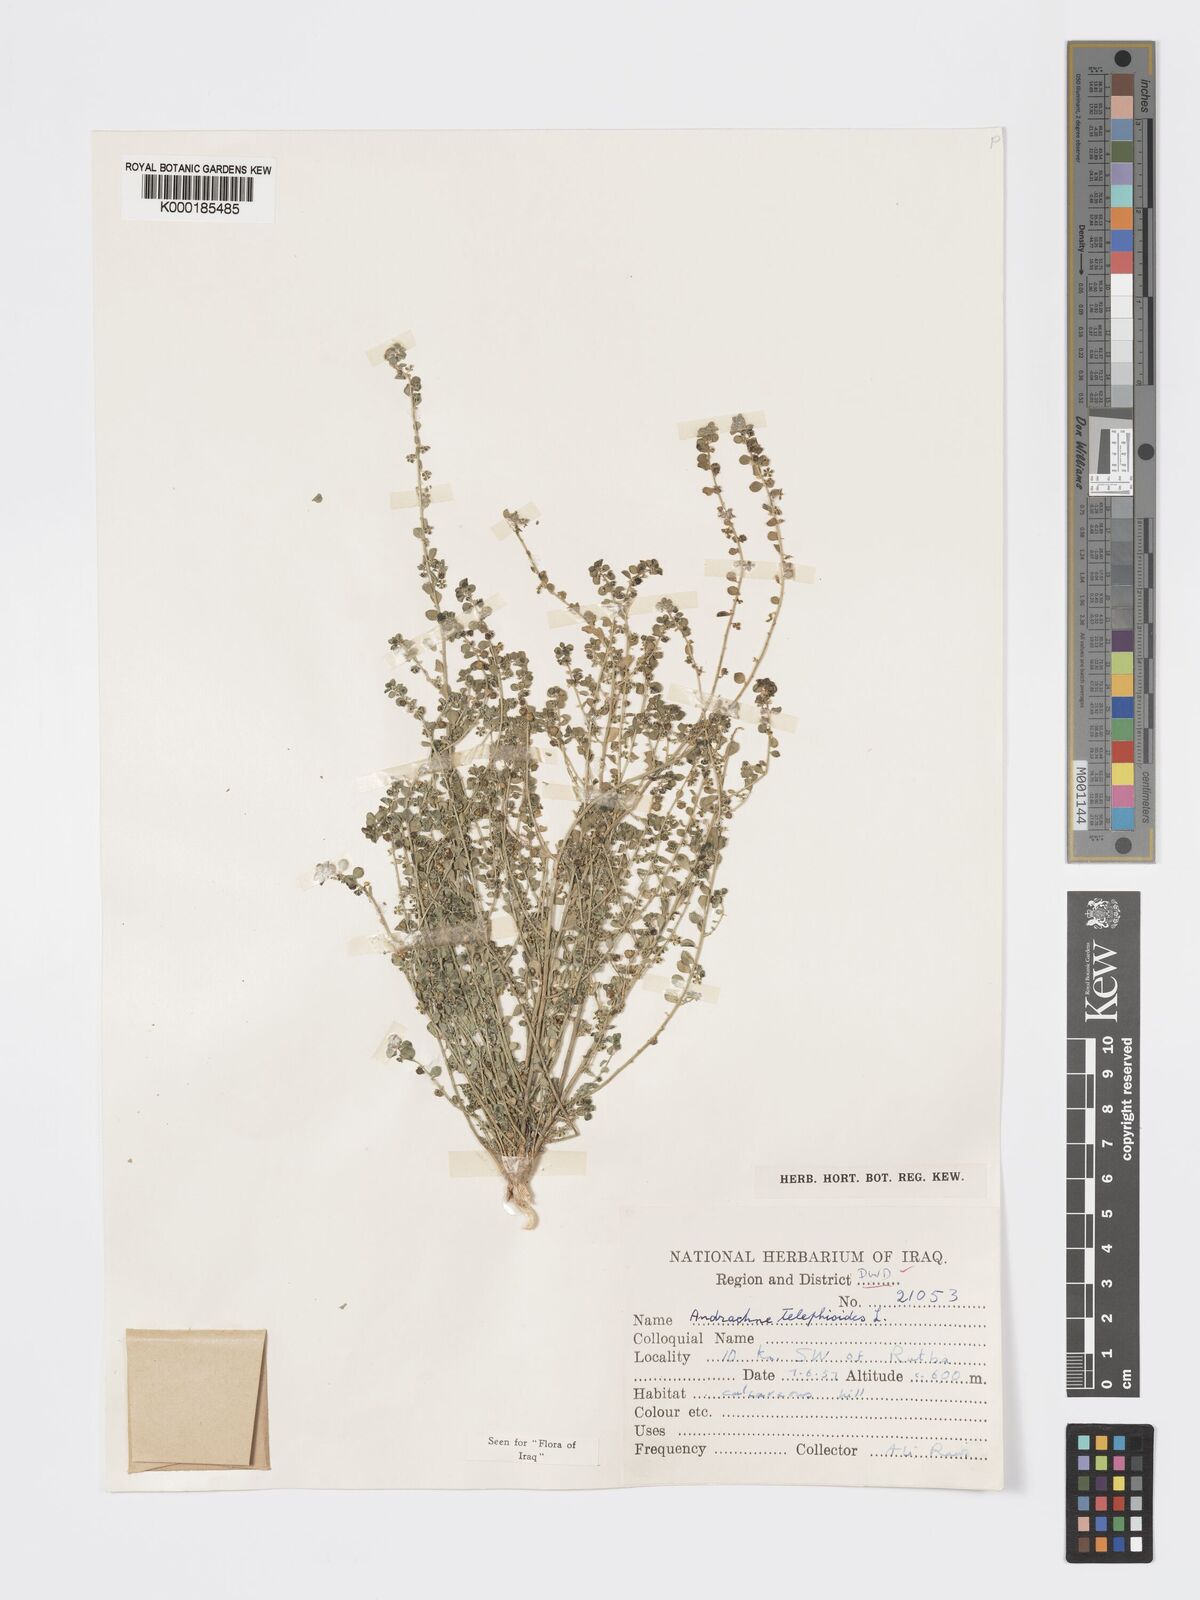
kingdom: Plantae
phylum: Tracheophyta
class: Magnoliopsida
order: Malpighiales
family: Phyllanthaceae
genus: Andrachne
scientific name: Andrachne telephioides
